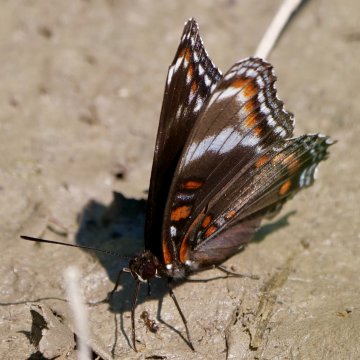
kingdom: Animalia
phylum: Arthropoda
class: Insecta
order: Lepidoptera
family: Nymphalidae
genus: Limenitis
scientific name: Limenitis arthemis
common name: Red-spotted Admiral
